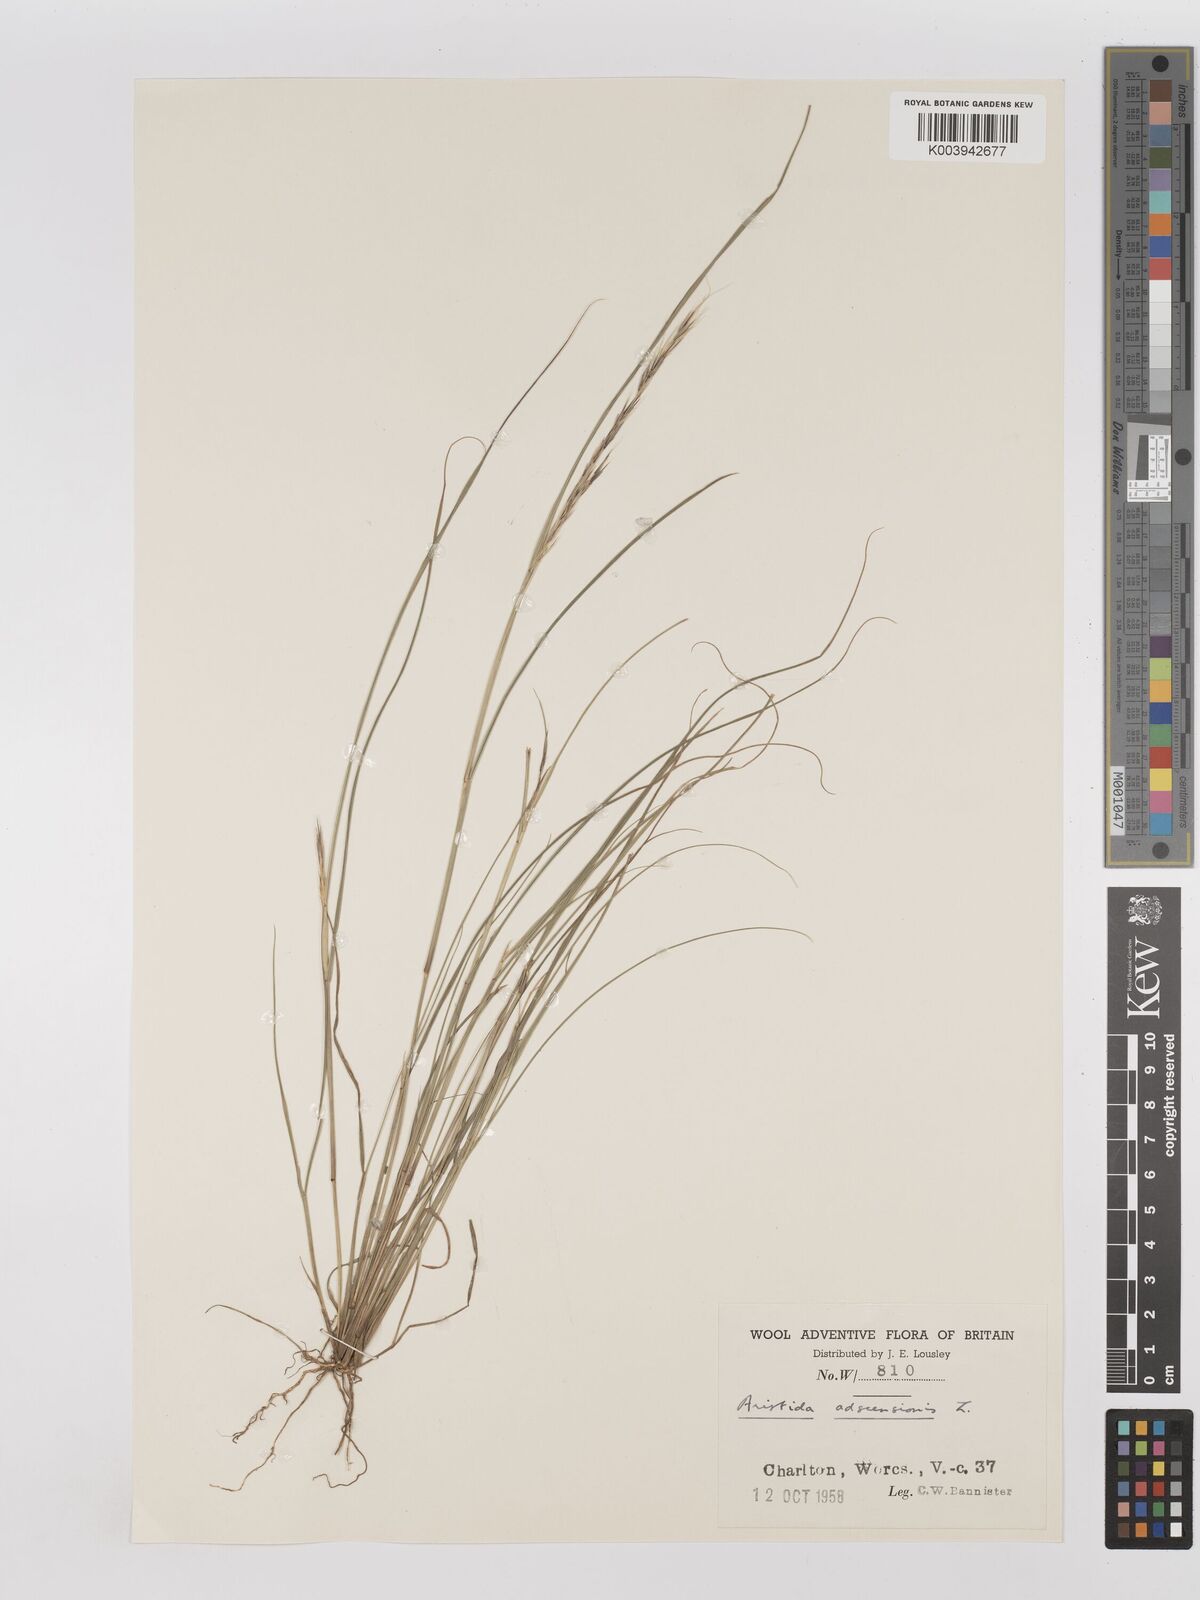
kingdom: Plantae
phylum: Tracheophyta
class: Liliopsida
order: Poales
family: Poaceae
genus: Aristida
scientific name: Aristida adscensionis
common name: Sixweeks threeawn
